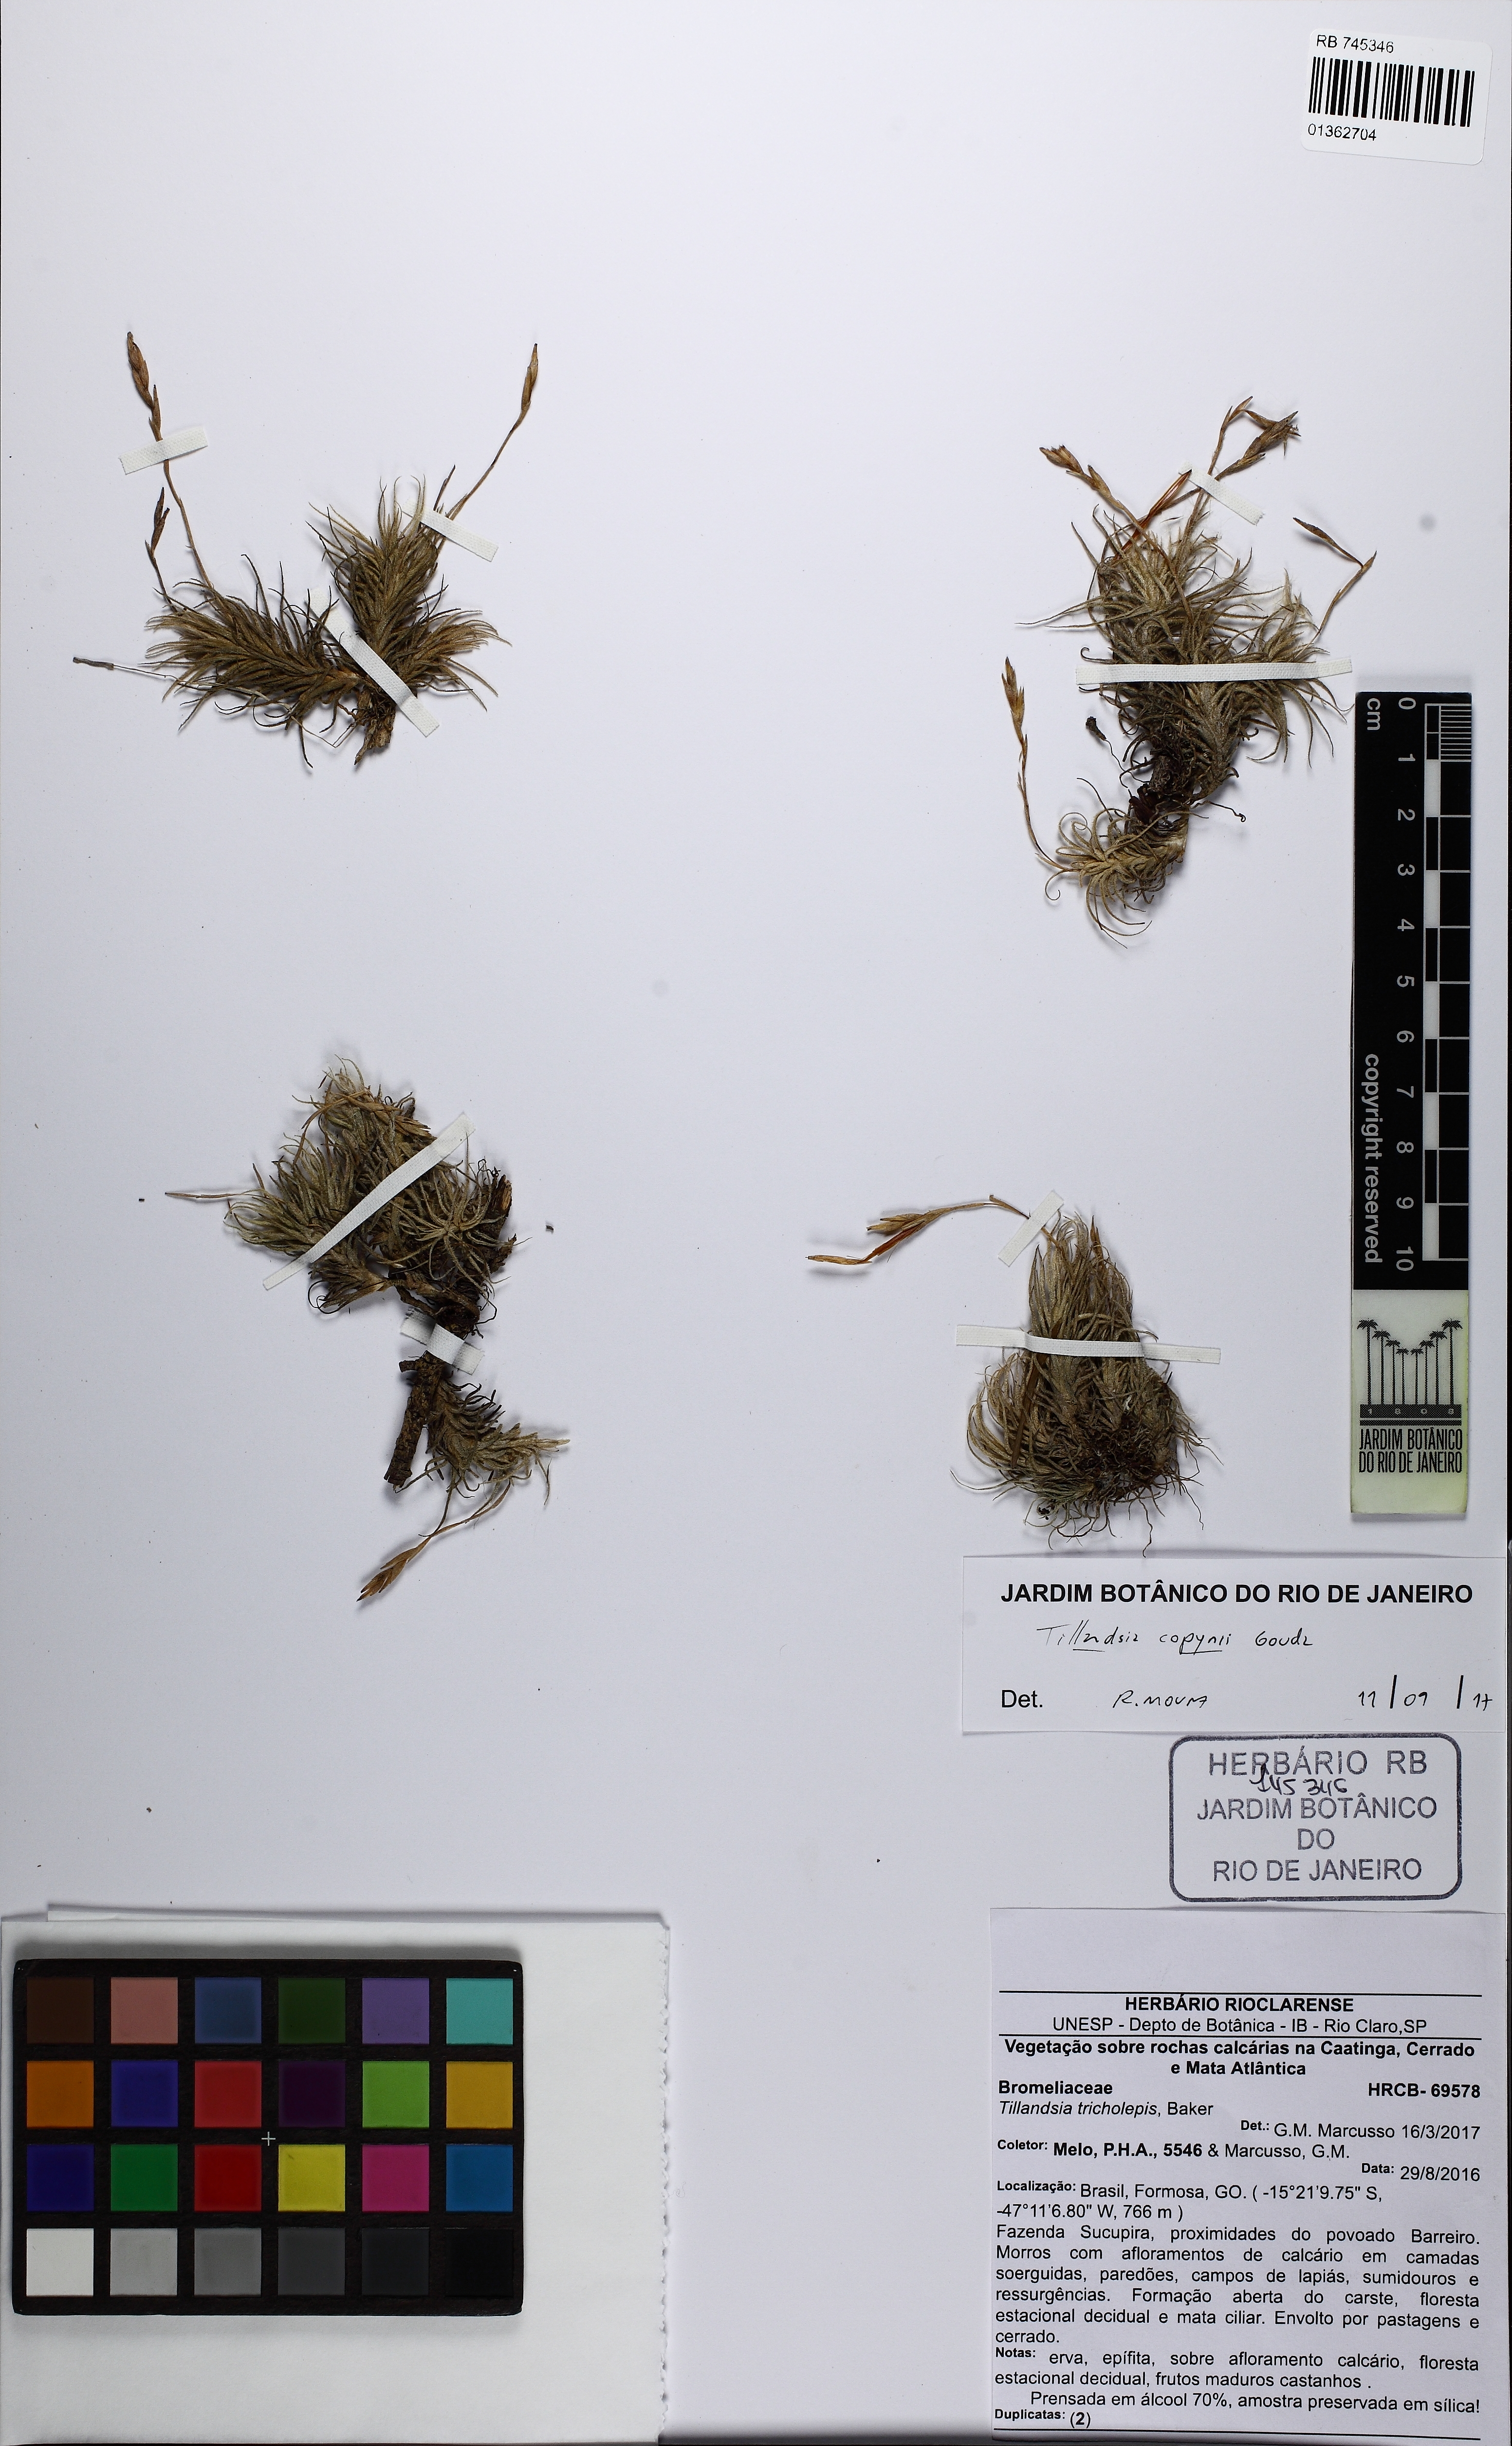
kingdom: Plantae
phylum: Tracheophyta
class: Liliopsida
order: Poales
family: Bromeliaceae
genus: Tillandsia
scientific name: Tillandsia copynii
